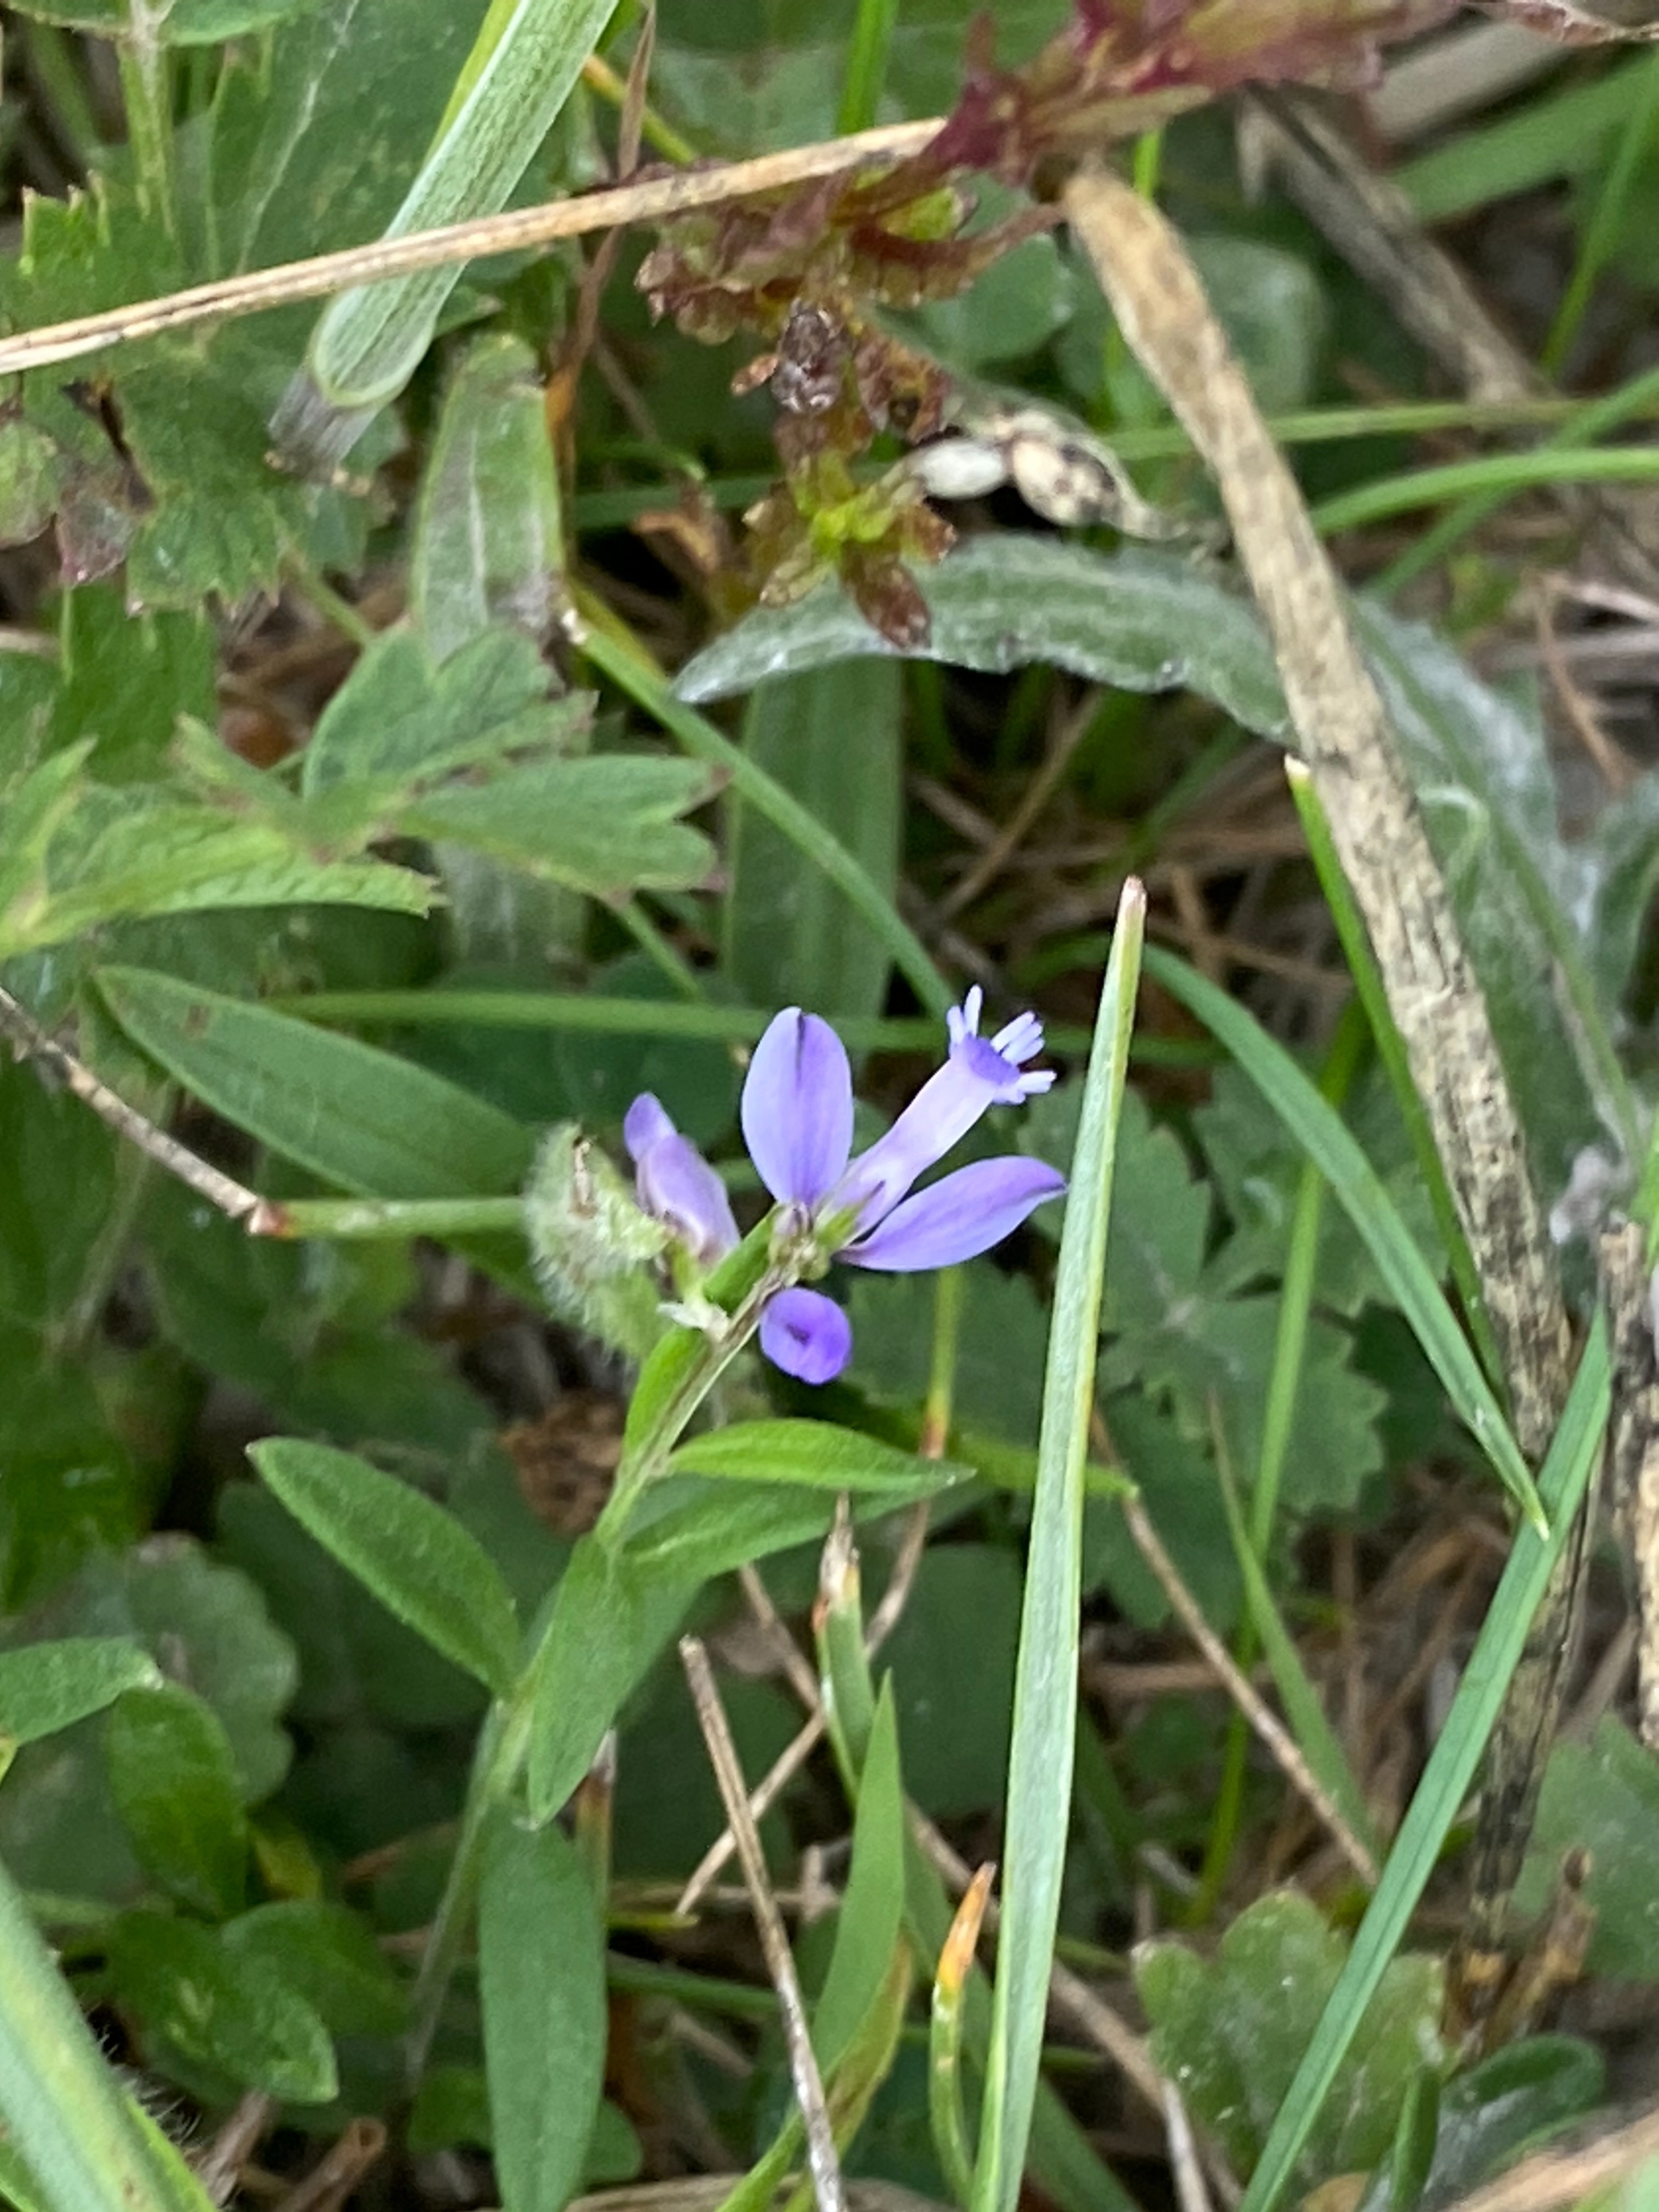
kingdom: Plantae
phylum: Tracheophyta
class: Magnoliopsida
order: Fabales
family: Polygalaceae
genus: Polygala
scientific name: Polygala vulgaris
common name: Almindelig mælkeurt
